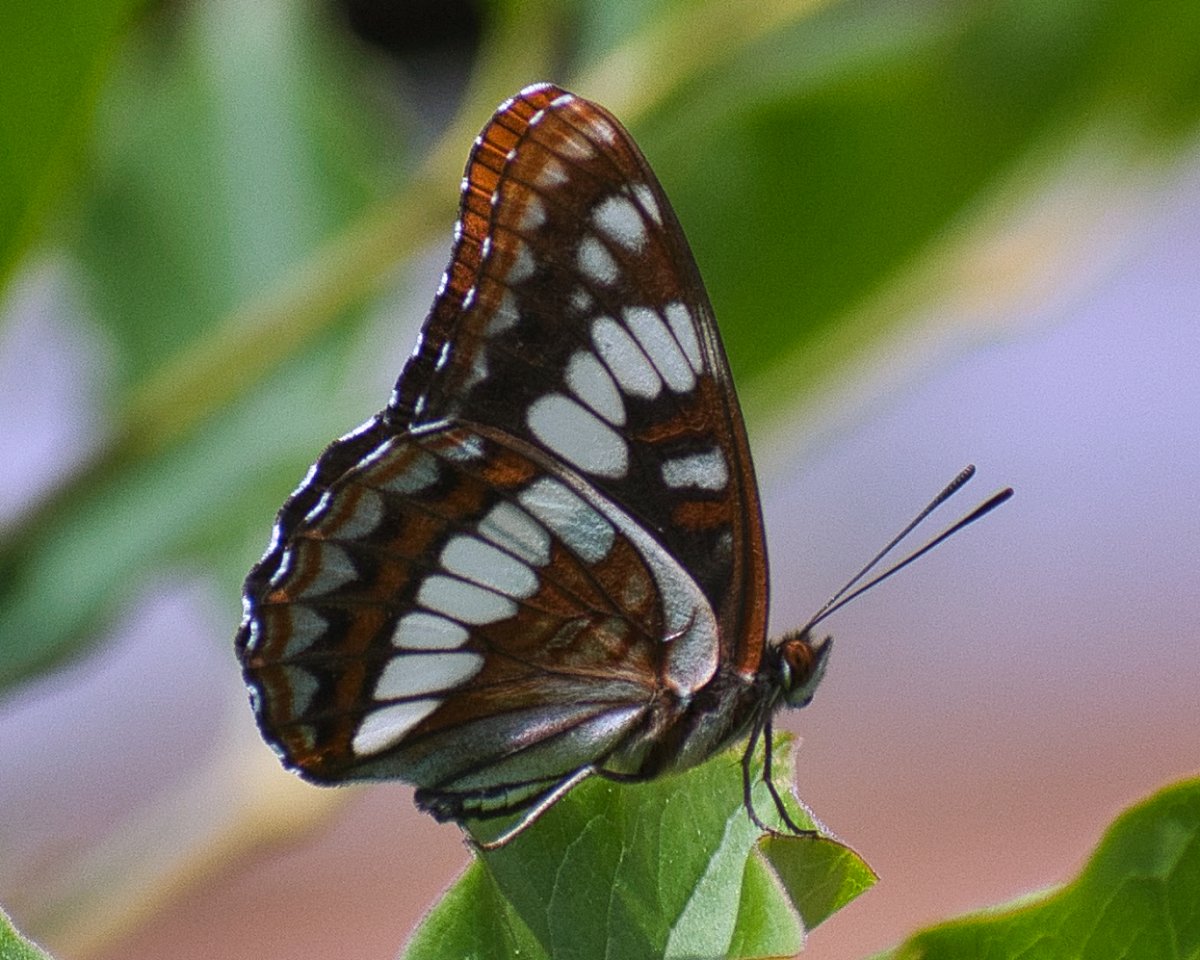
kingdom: Animalia
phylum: Arthropoda
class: Insecta
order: Lepidoptera
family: Nymphalidae
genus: Limenitis
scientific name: Limenitis lorquini
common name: Lorquin's Admiral
